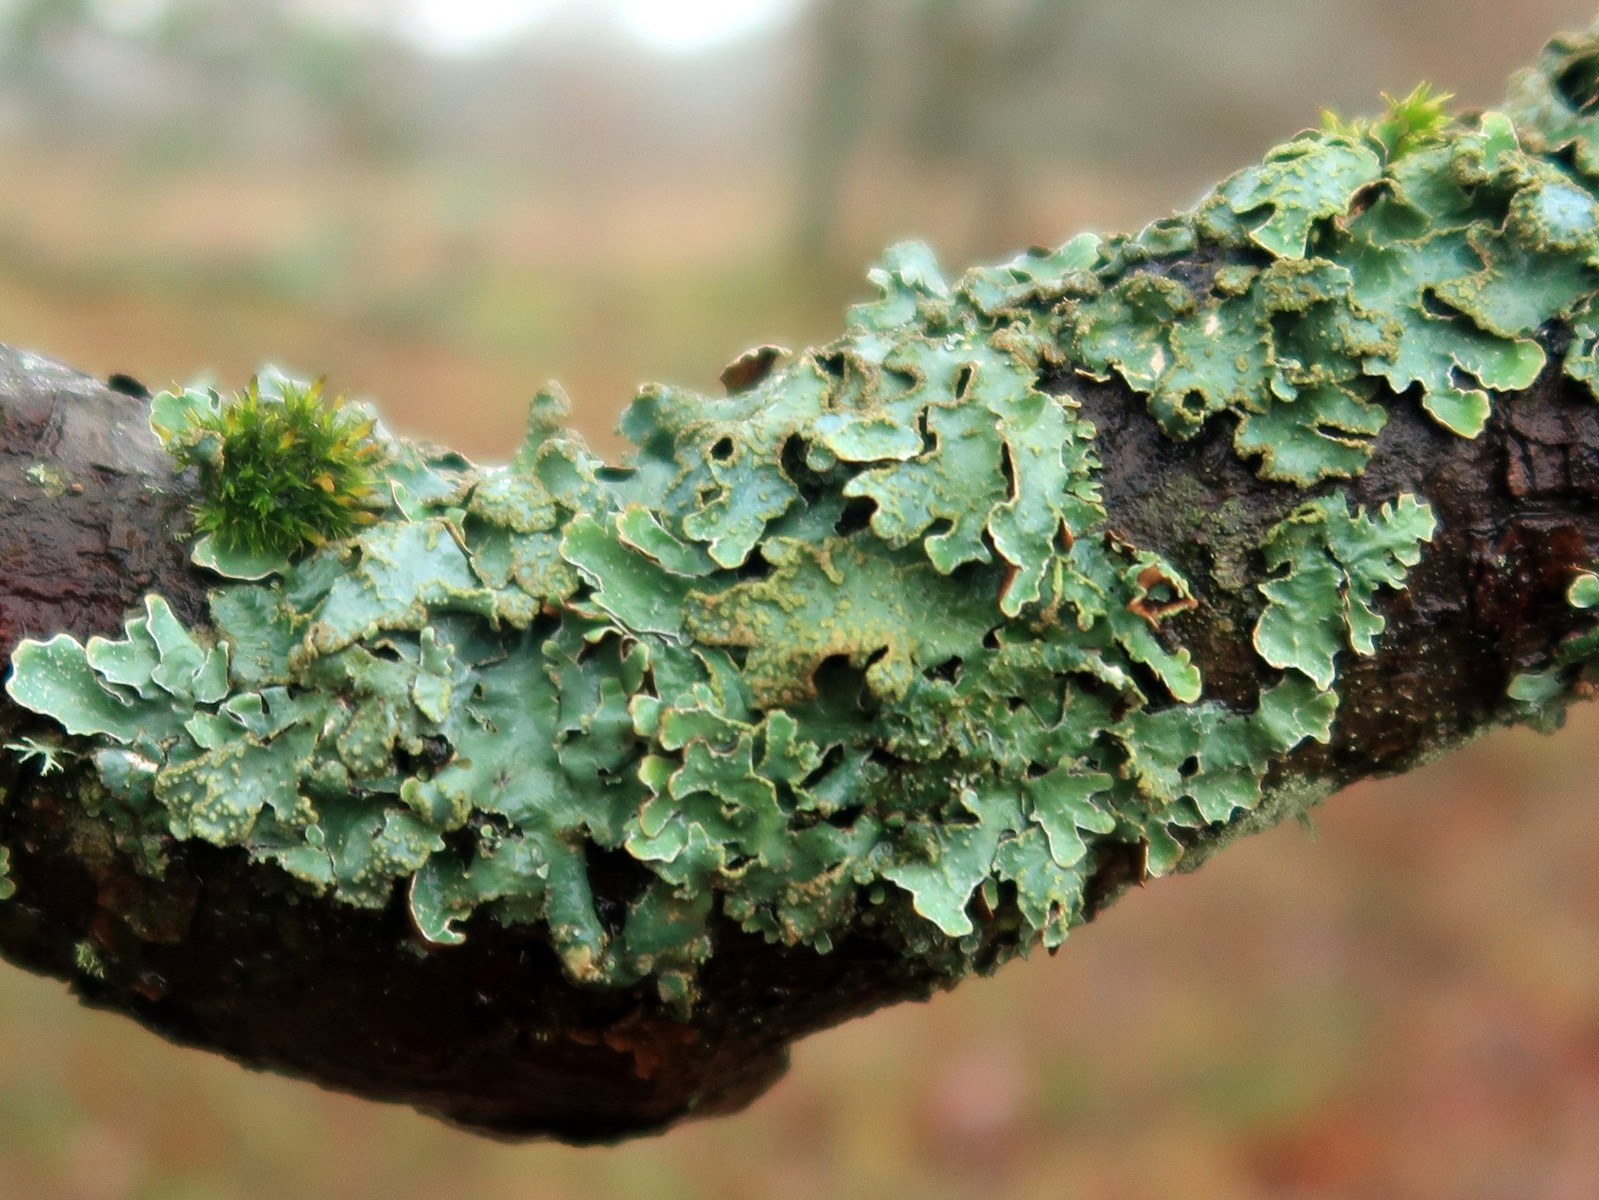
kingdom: Fungi
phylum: Ascomycota
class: Lecanoromycetes
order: Lecanorales
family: Parmeliaceae
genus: Parmelia
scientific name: Parmelia sulcata
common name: rynket skållav
